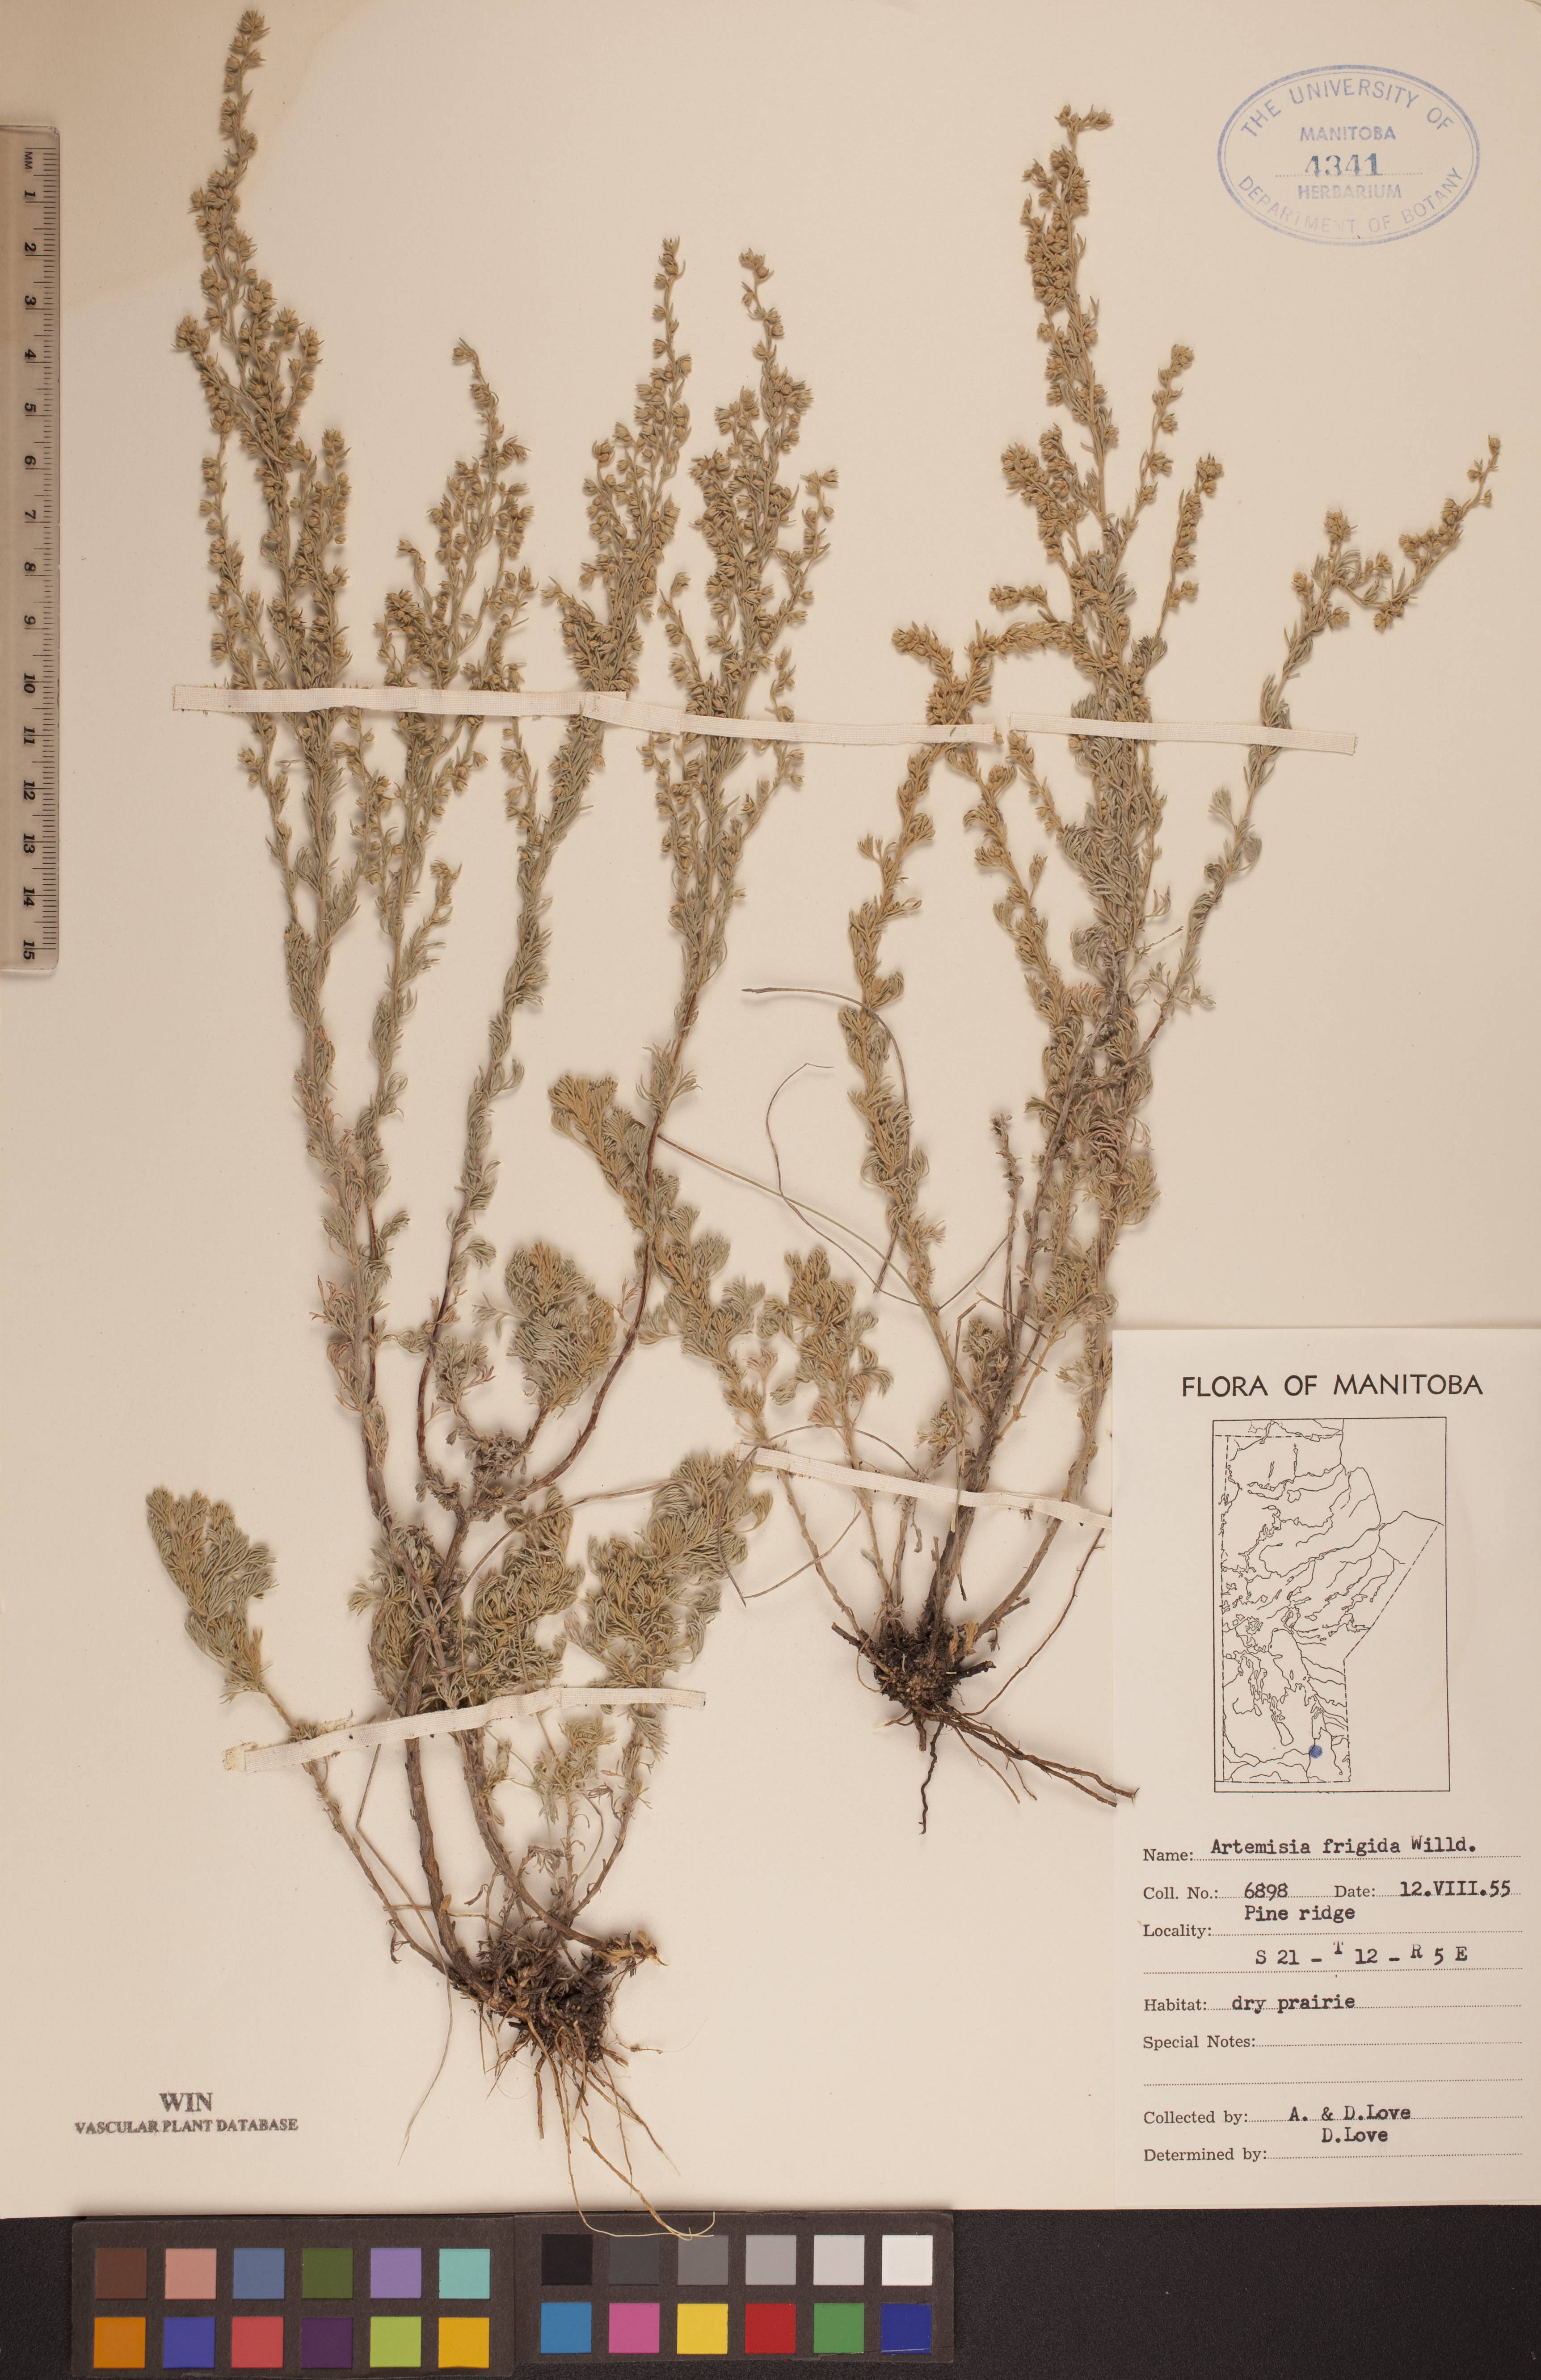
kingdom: Plantae
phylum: Tracheophyta
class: Magnoliopsida
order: Asterales
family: Asteraceae
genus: Artemisia
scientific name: Artemisia frigida
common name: Prairie sagewort
